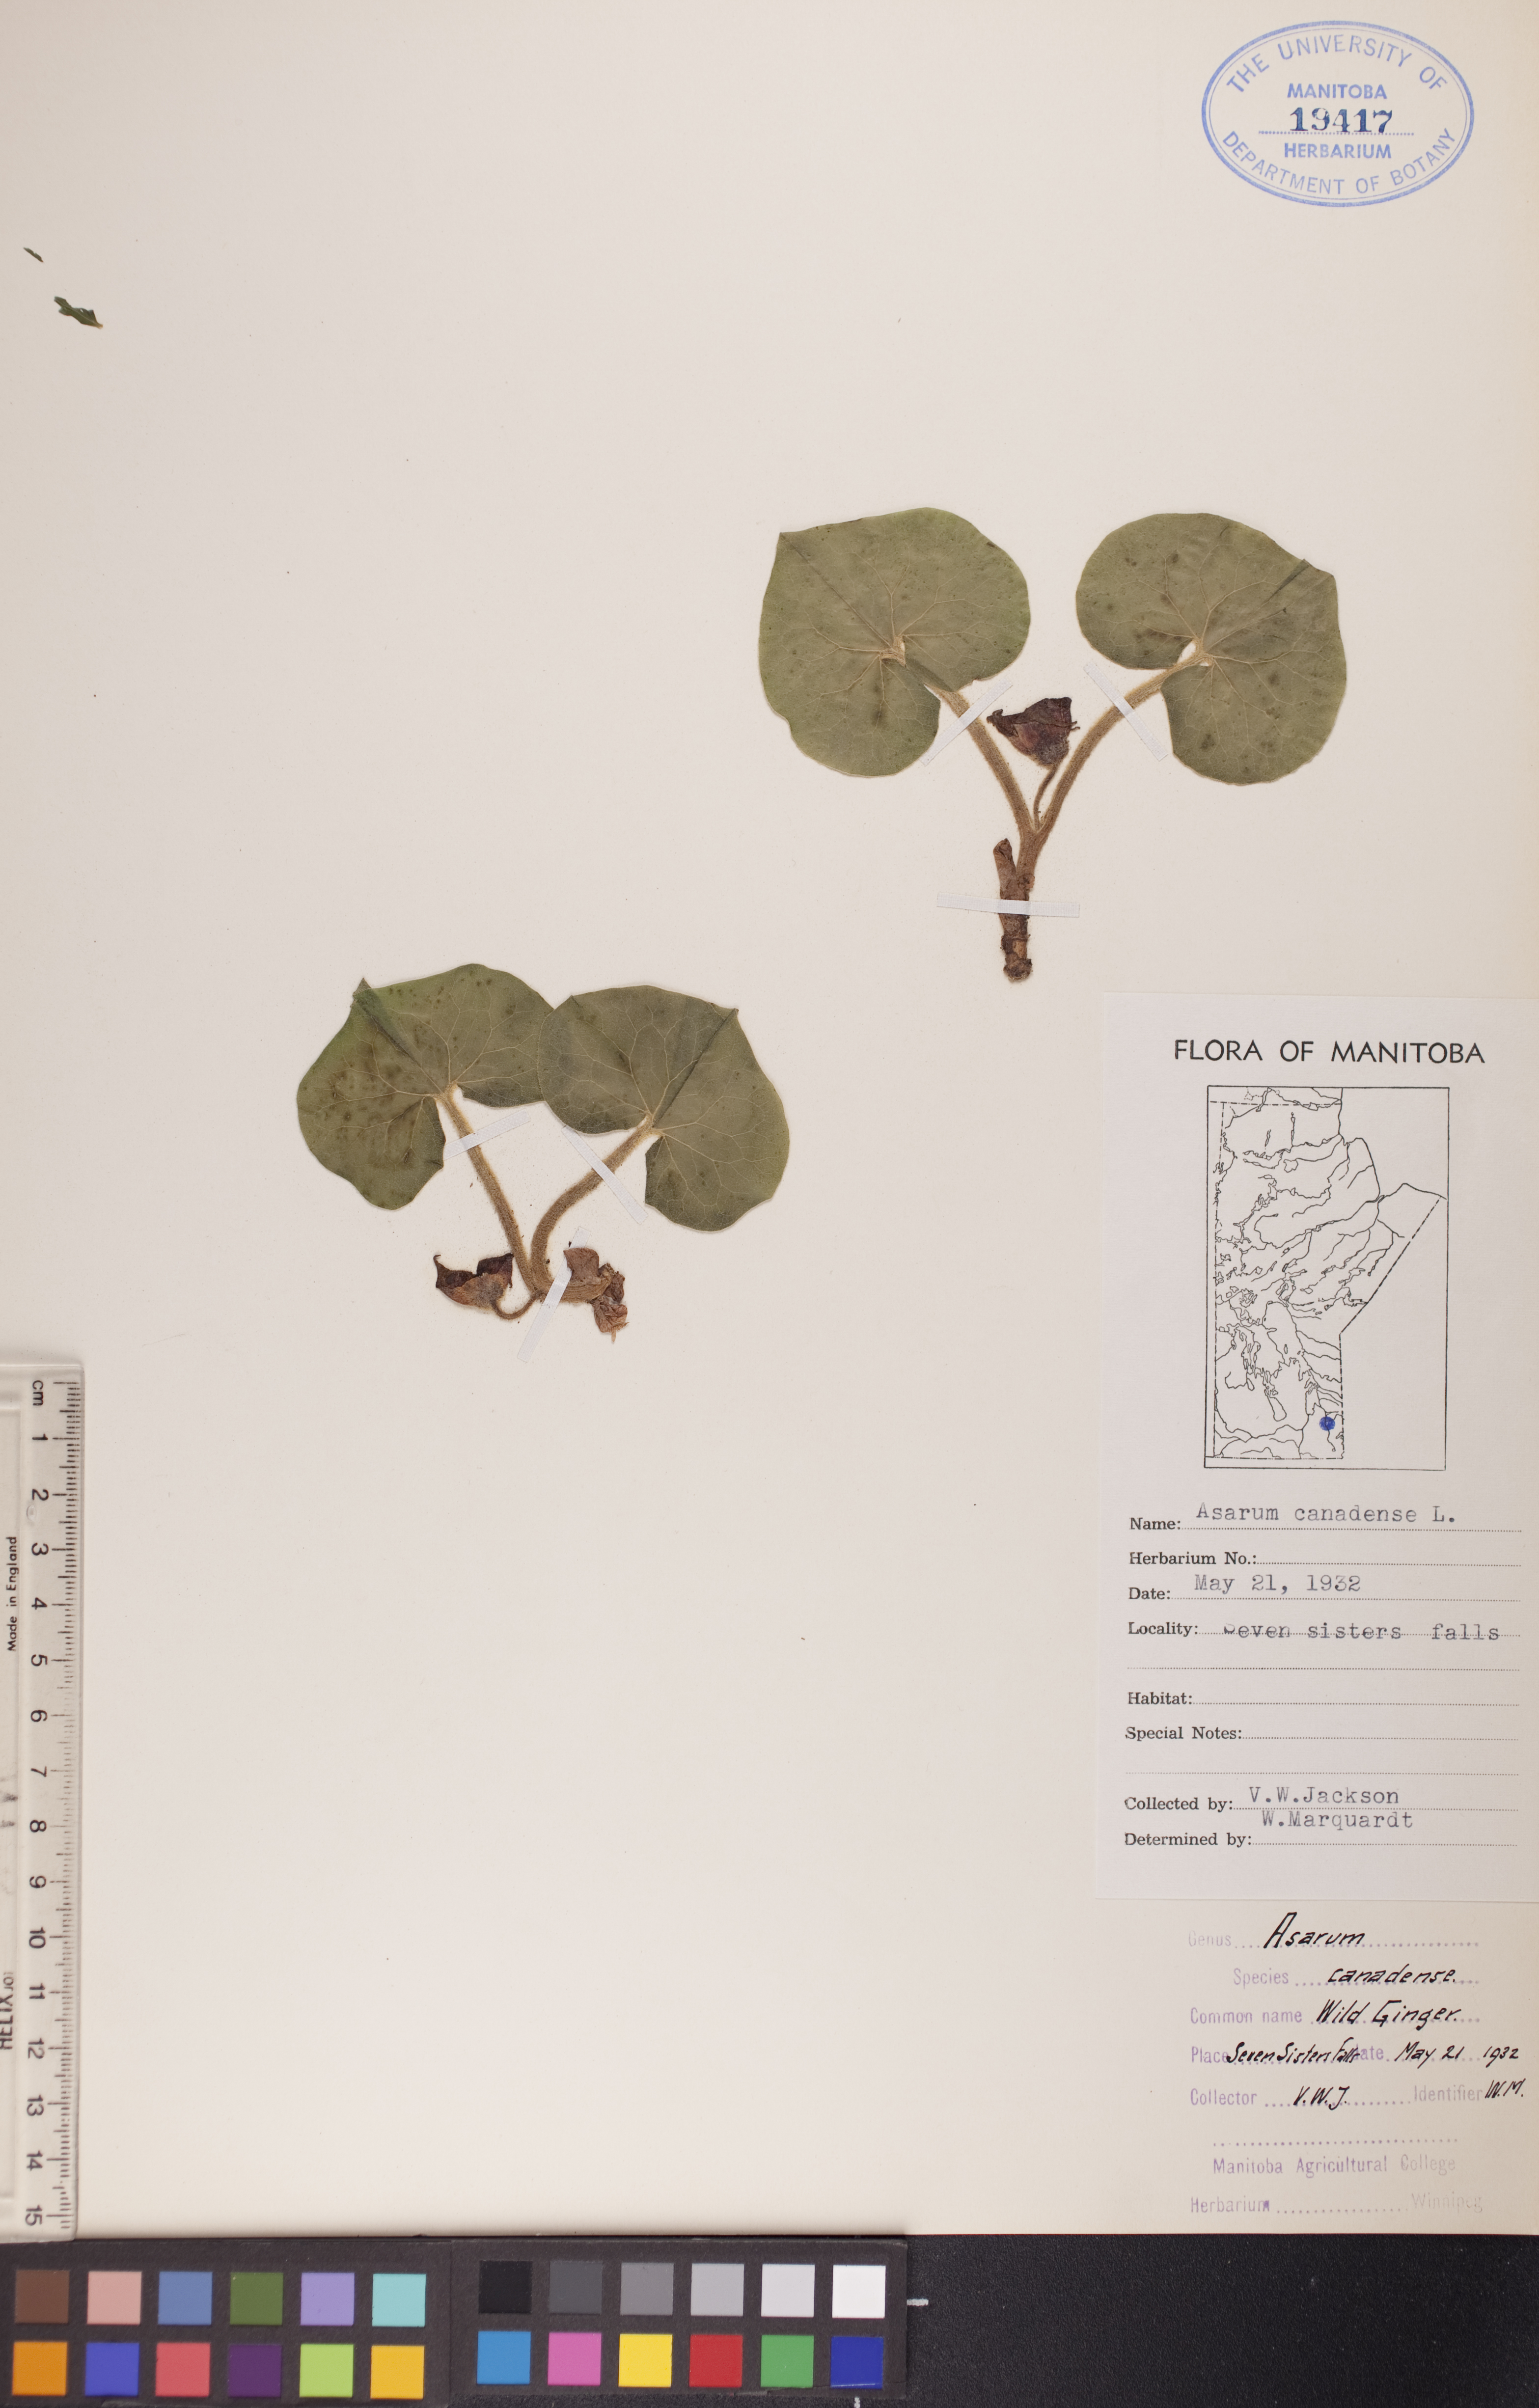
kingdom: Plantae
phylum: Tracheophyta
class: Magnoliopsida
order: Piperales
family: Aristolochiaceae
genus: Asarum
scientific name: Asarum canadense
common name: Wild ginger
